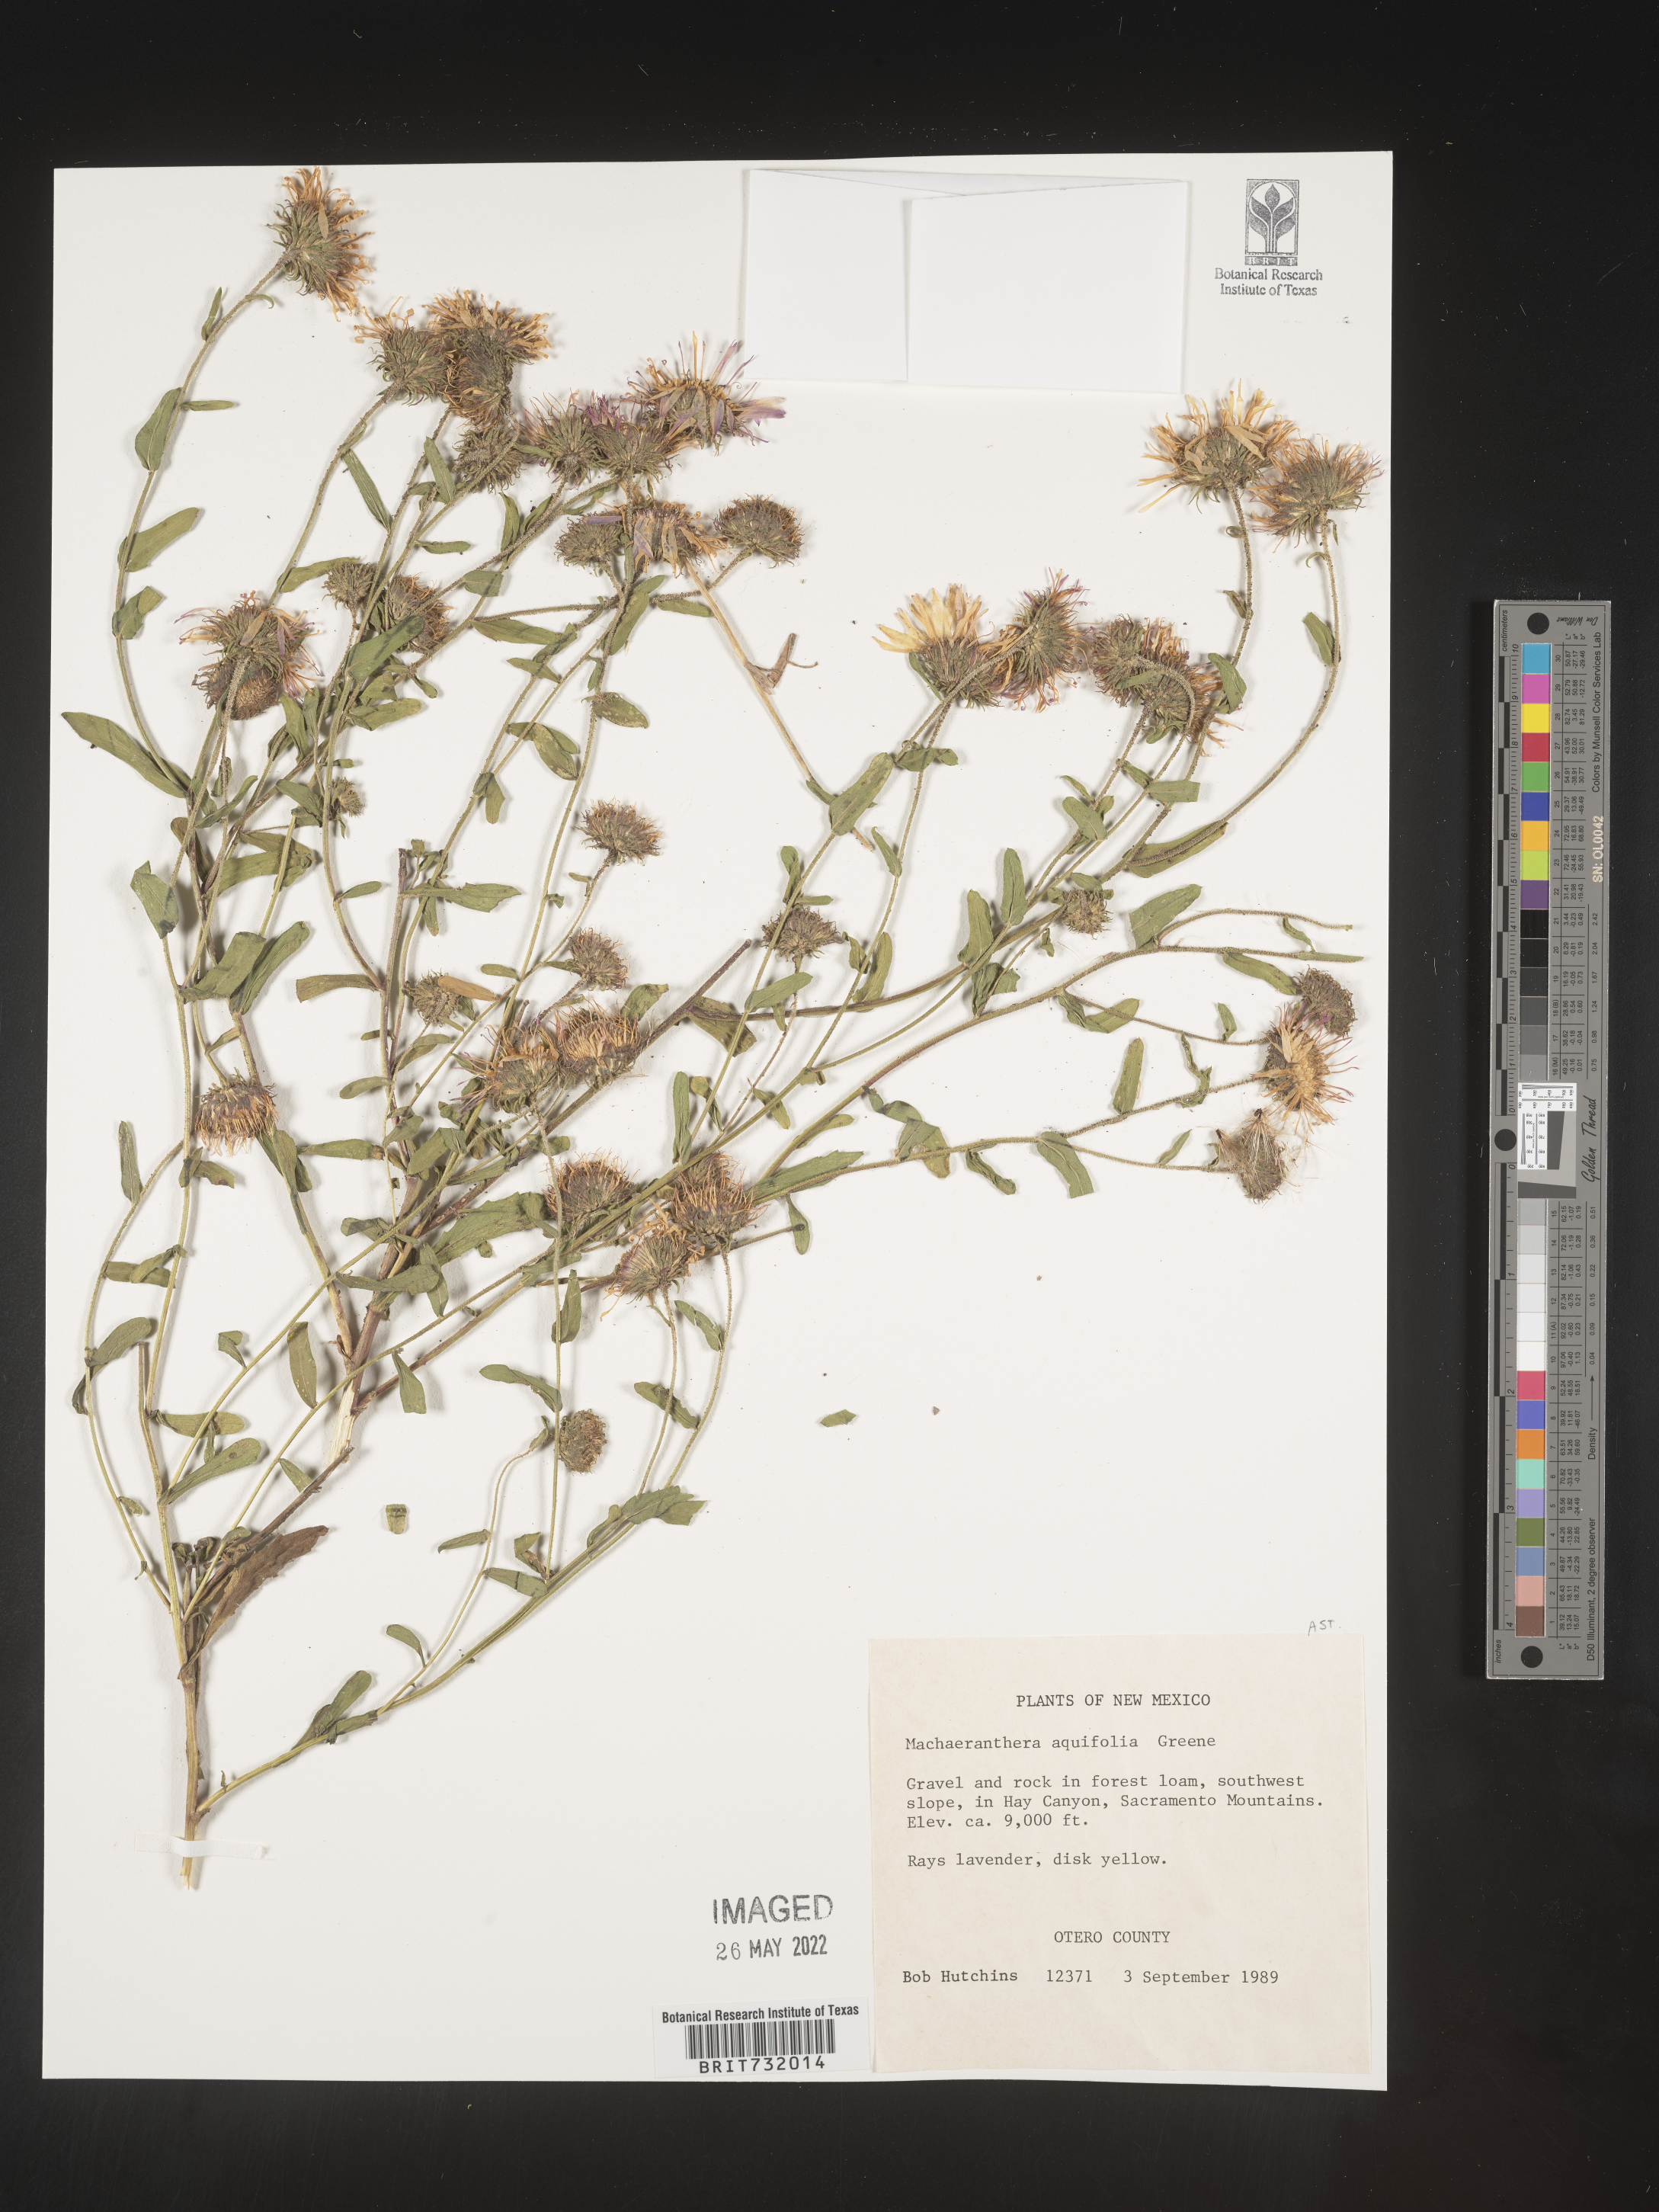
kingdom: Plantae
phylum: Tracheophyta
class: Magnoliopsida
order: Asterales
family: Asteraceae
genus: Dieteria
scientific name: Dieteria bigelovii
